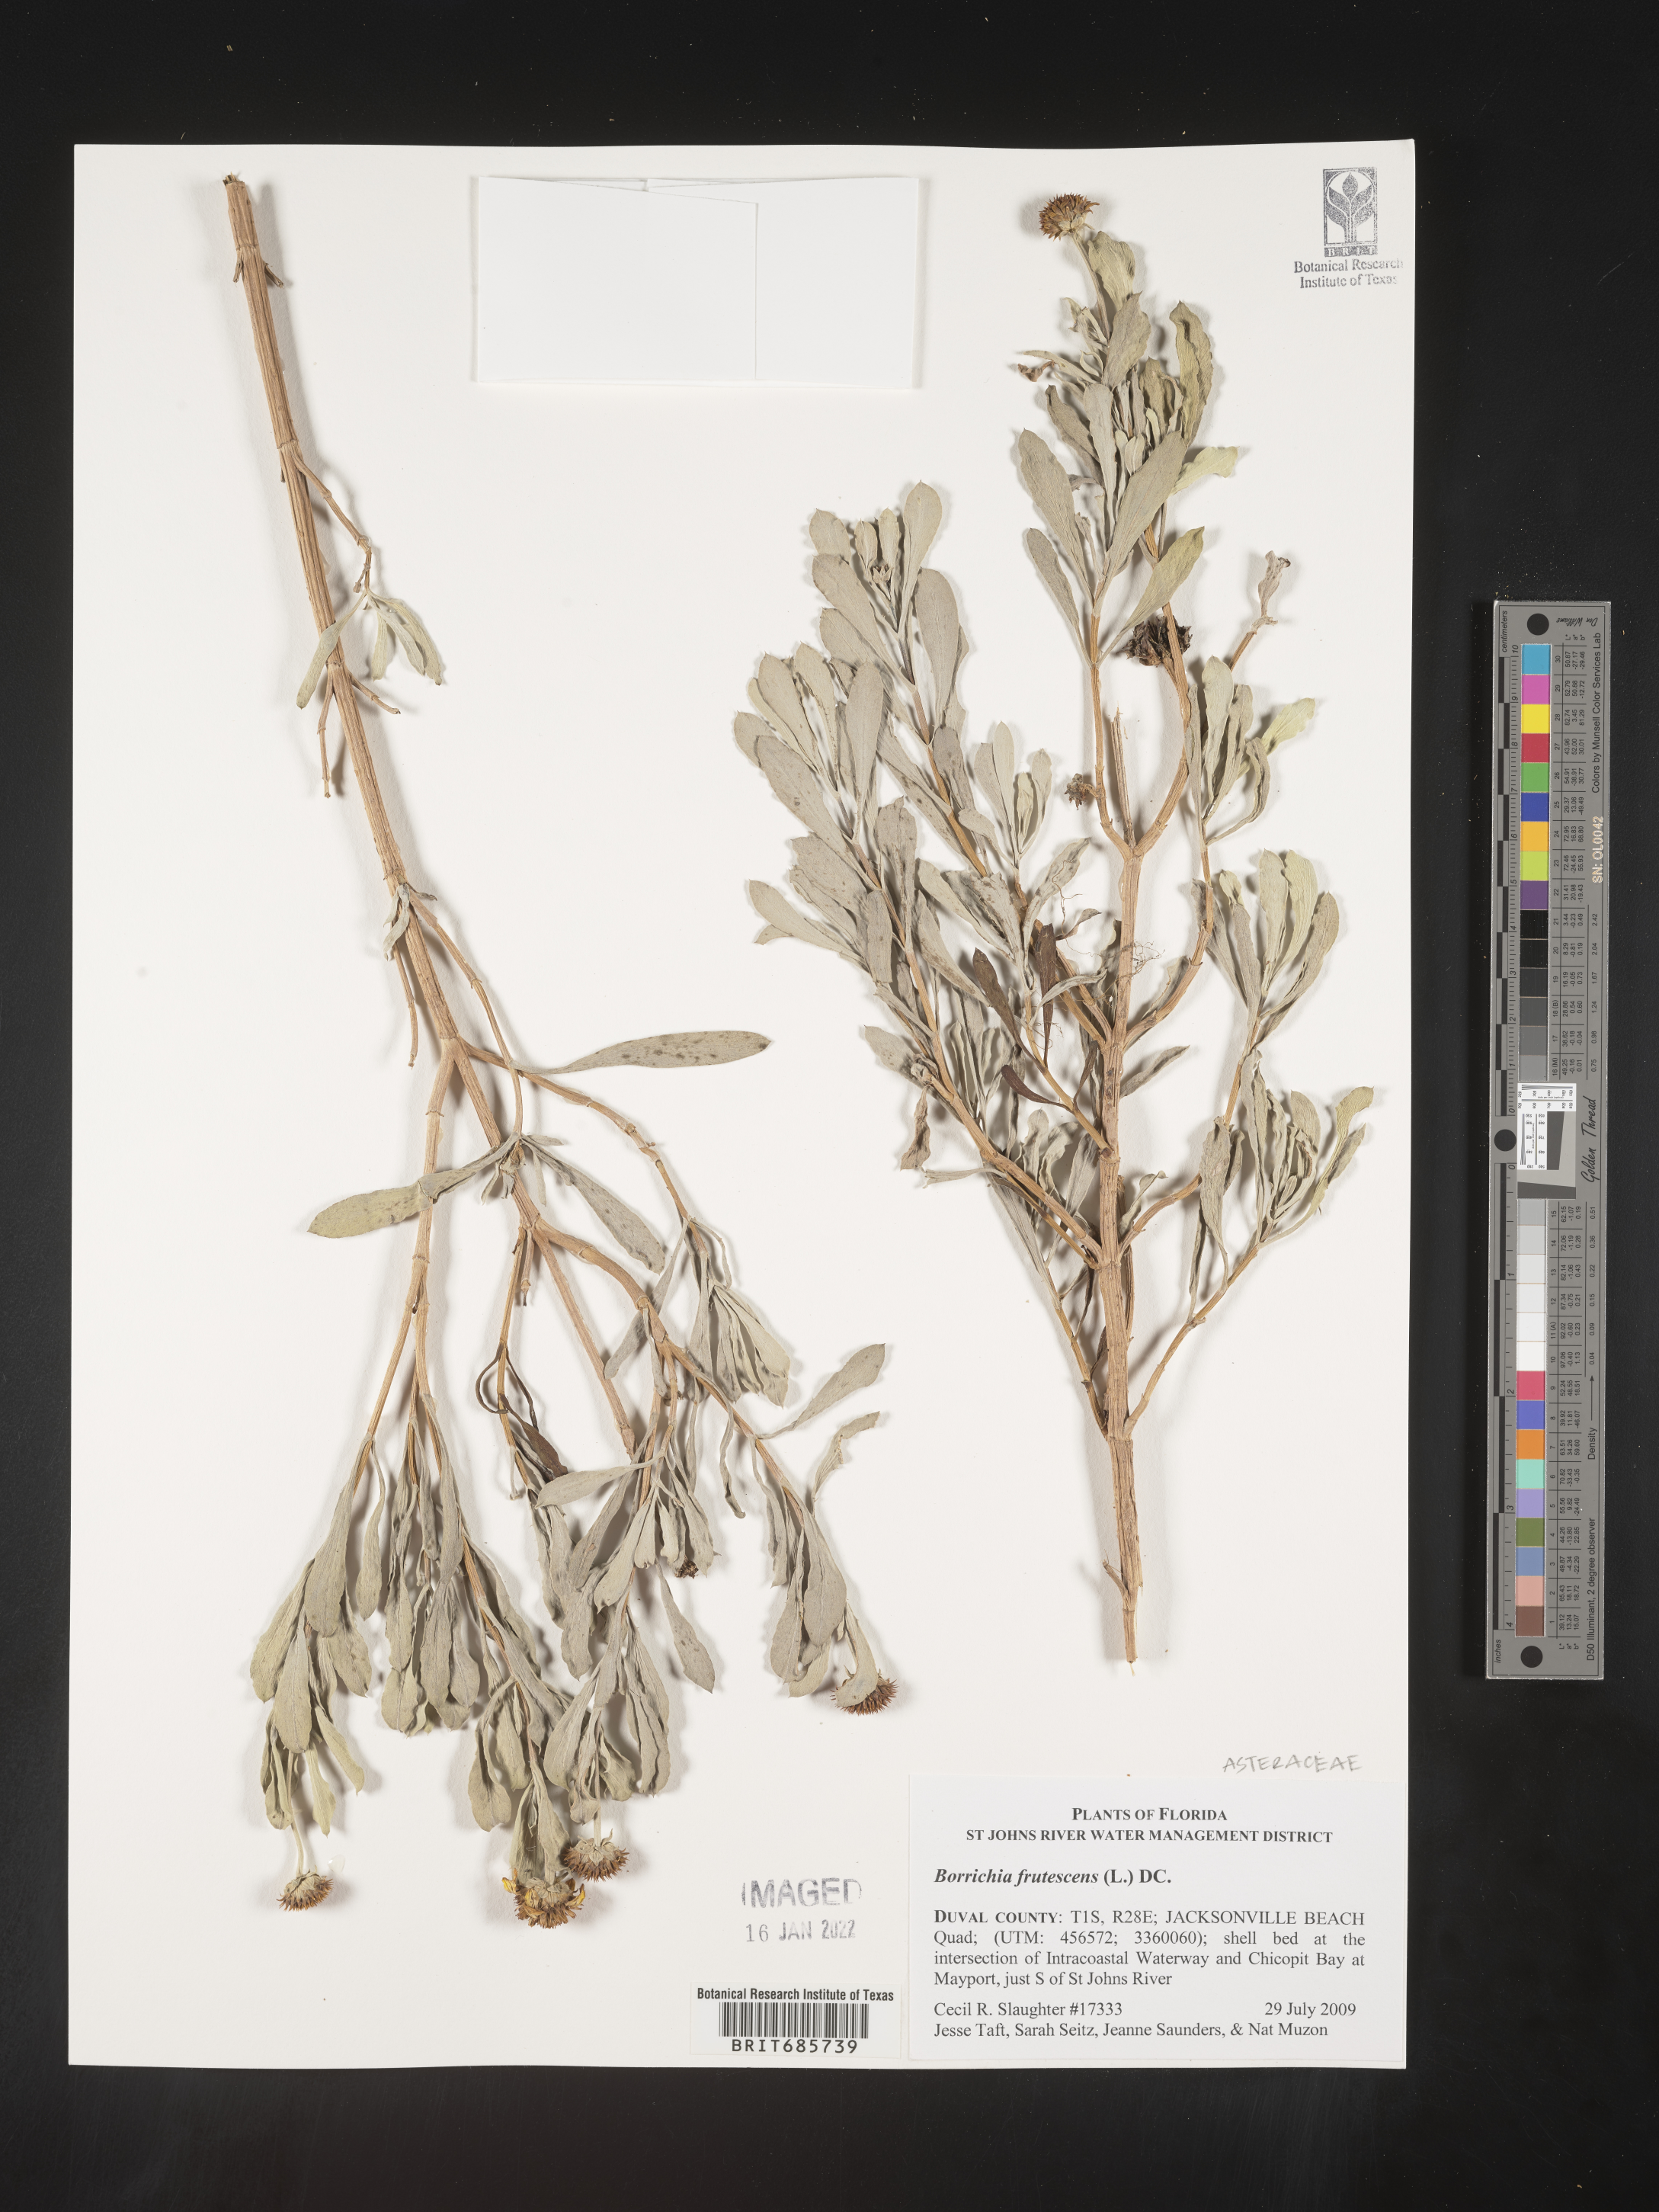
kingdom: Plantae
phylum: Tracheophyta
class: Magnoliopsida
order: Asterales
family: Asteraceae
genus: Borrichia
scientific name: Borrichia frutescens
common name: Sea oxeye
